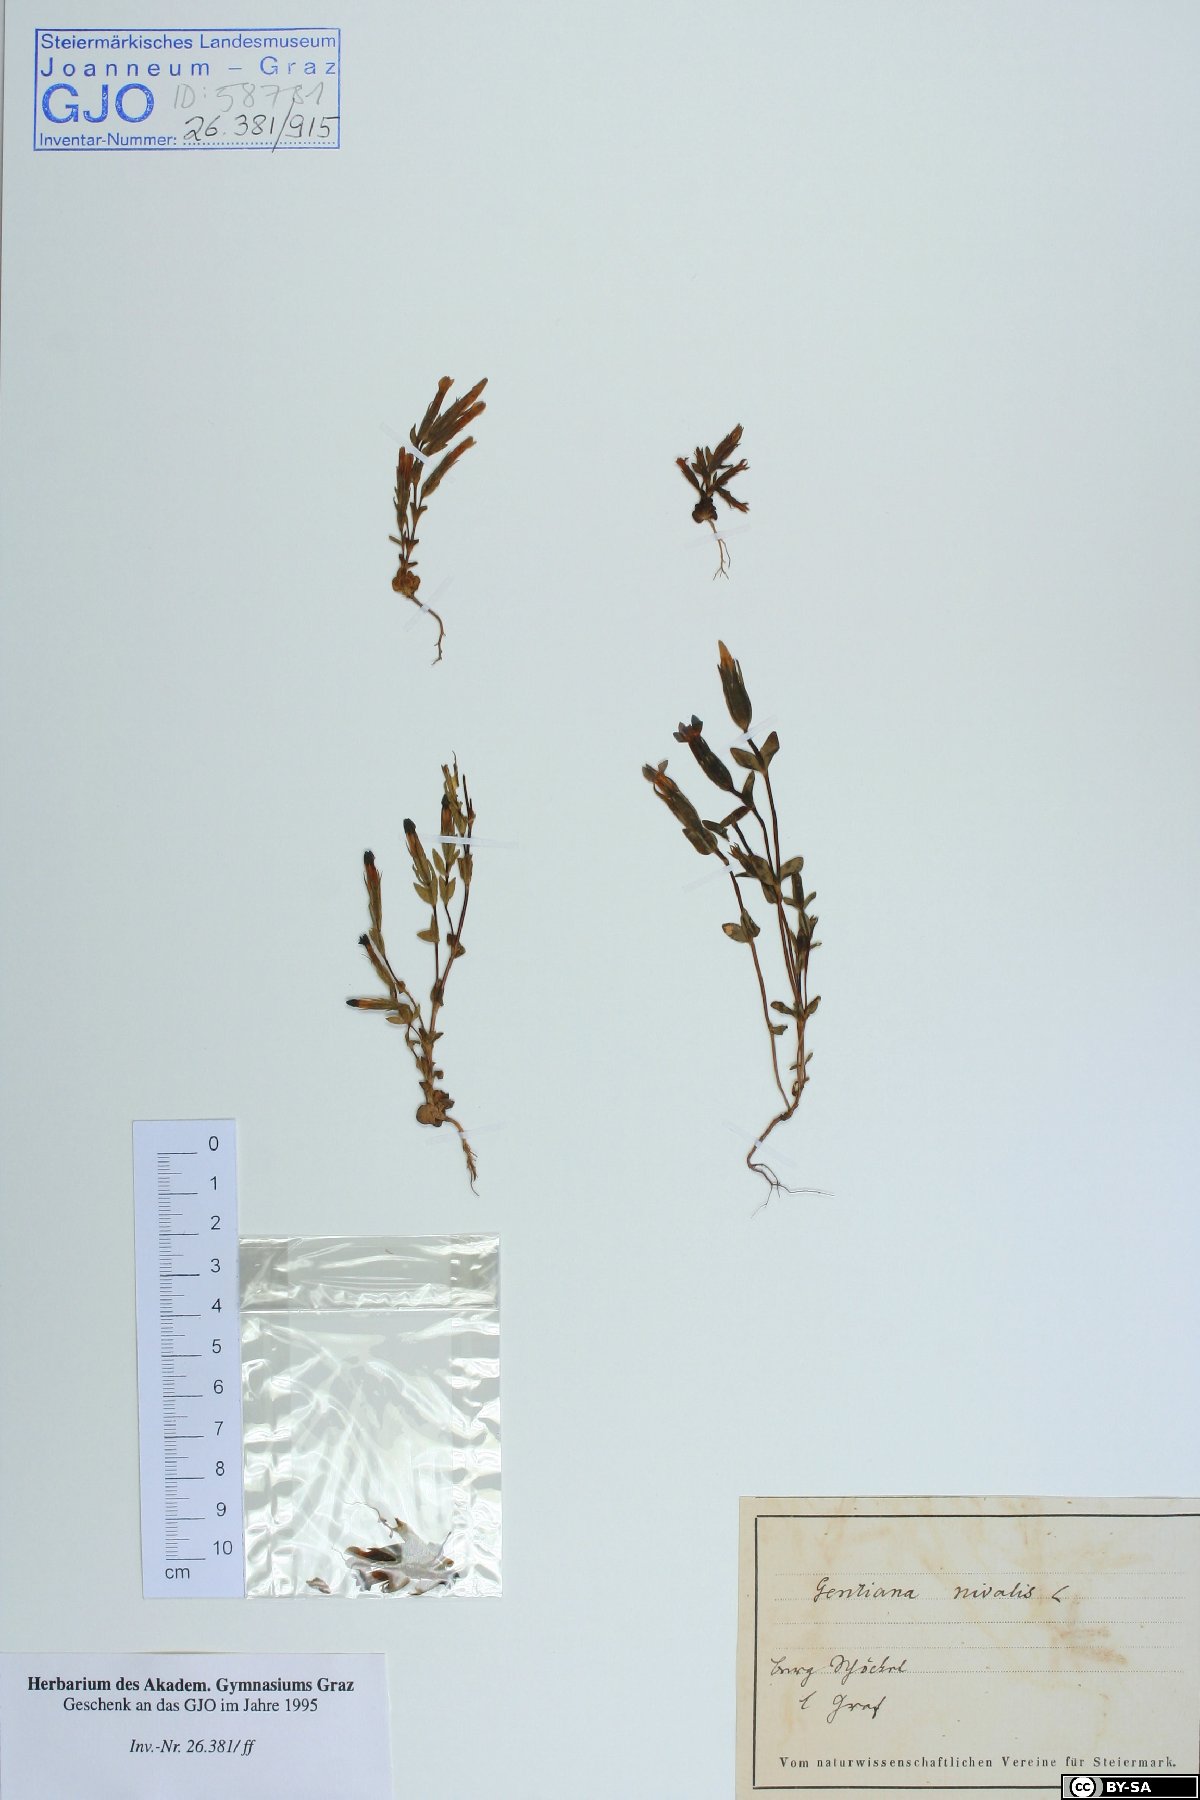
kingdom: Plantae
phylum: Tracheophyta
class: Magnoliopsida
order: Gentianales
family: Gentianaceae
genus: Gentiana
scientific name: Gentiana nivalis
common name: Alpine gentian
